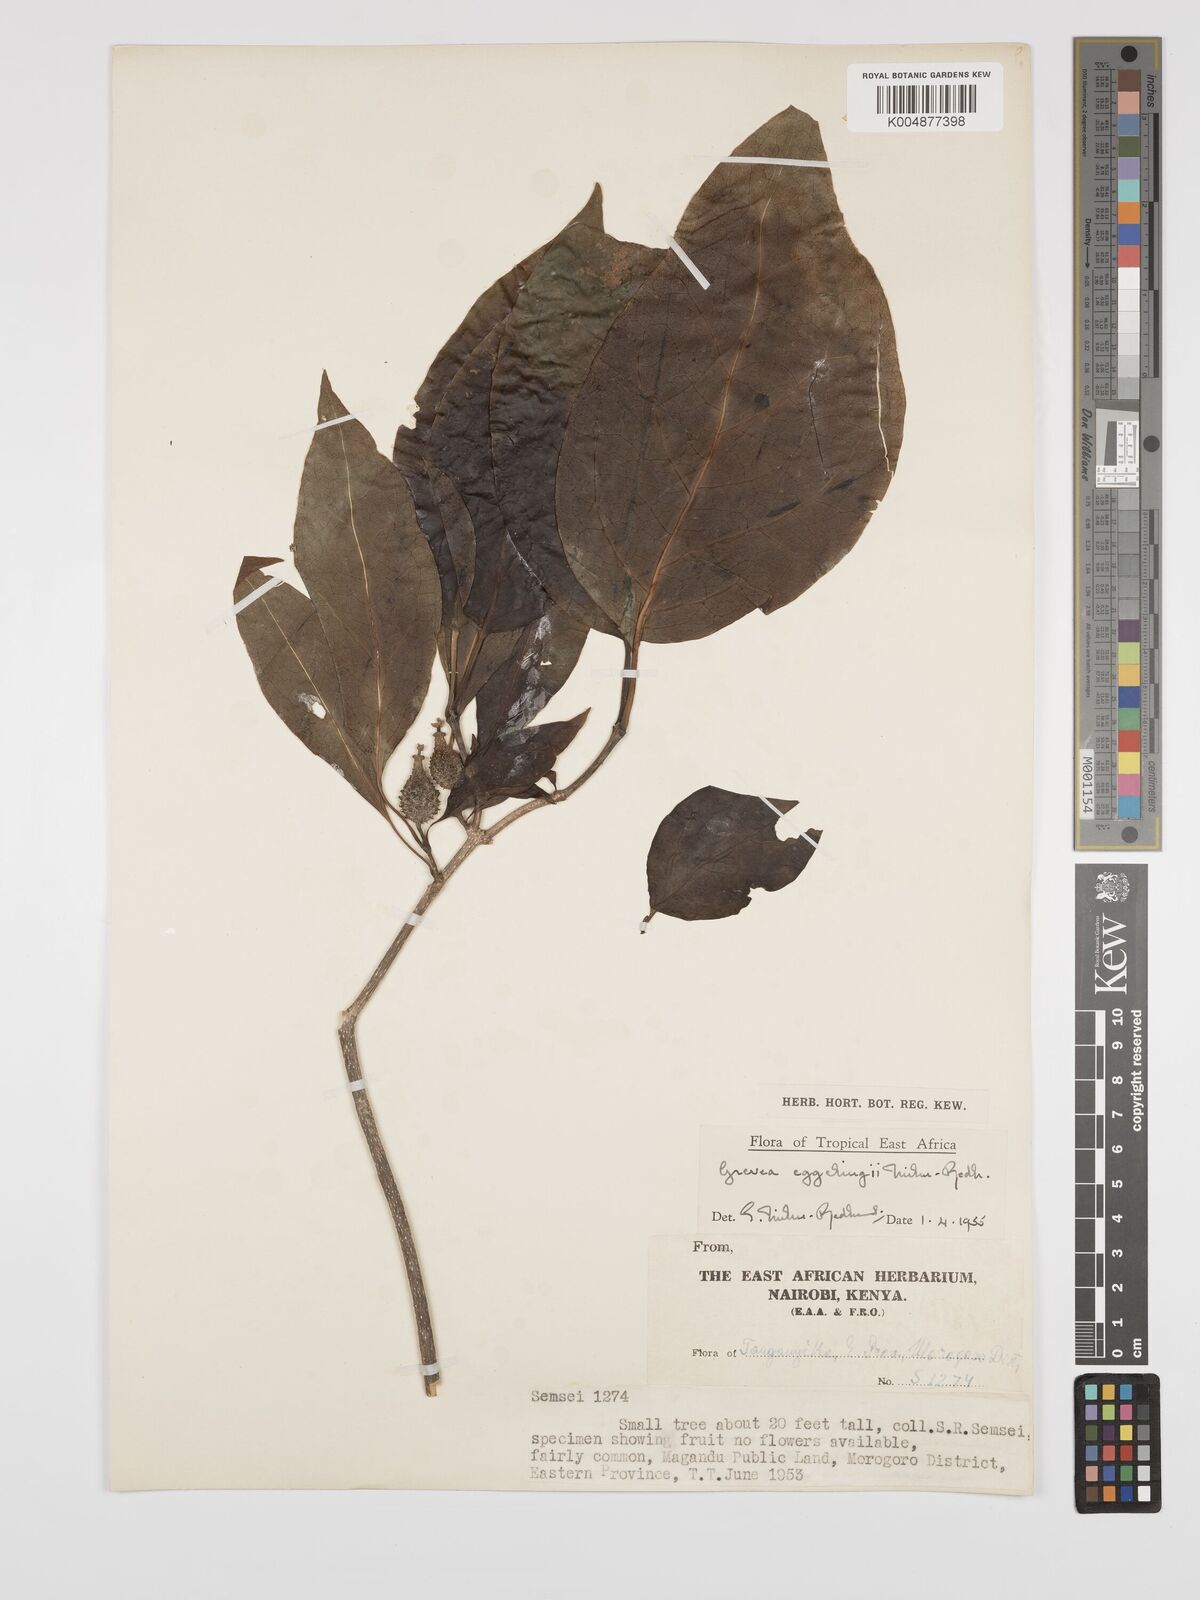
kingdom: Plantae
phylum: Tracheophyta
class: Magnoliopsida
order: Solanales
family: Montiniaceae
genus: Grevea
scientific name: Grevea eggelingii
